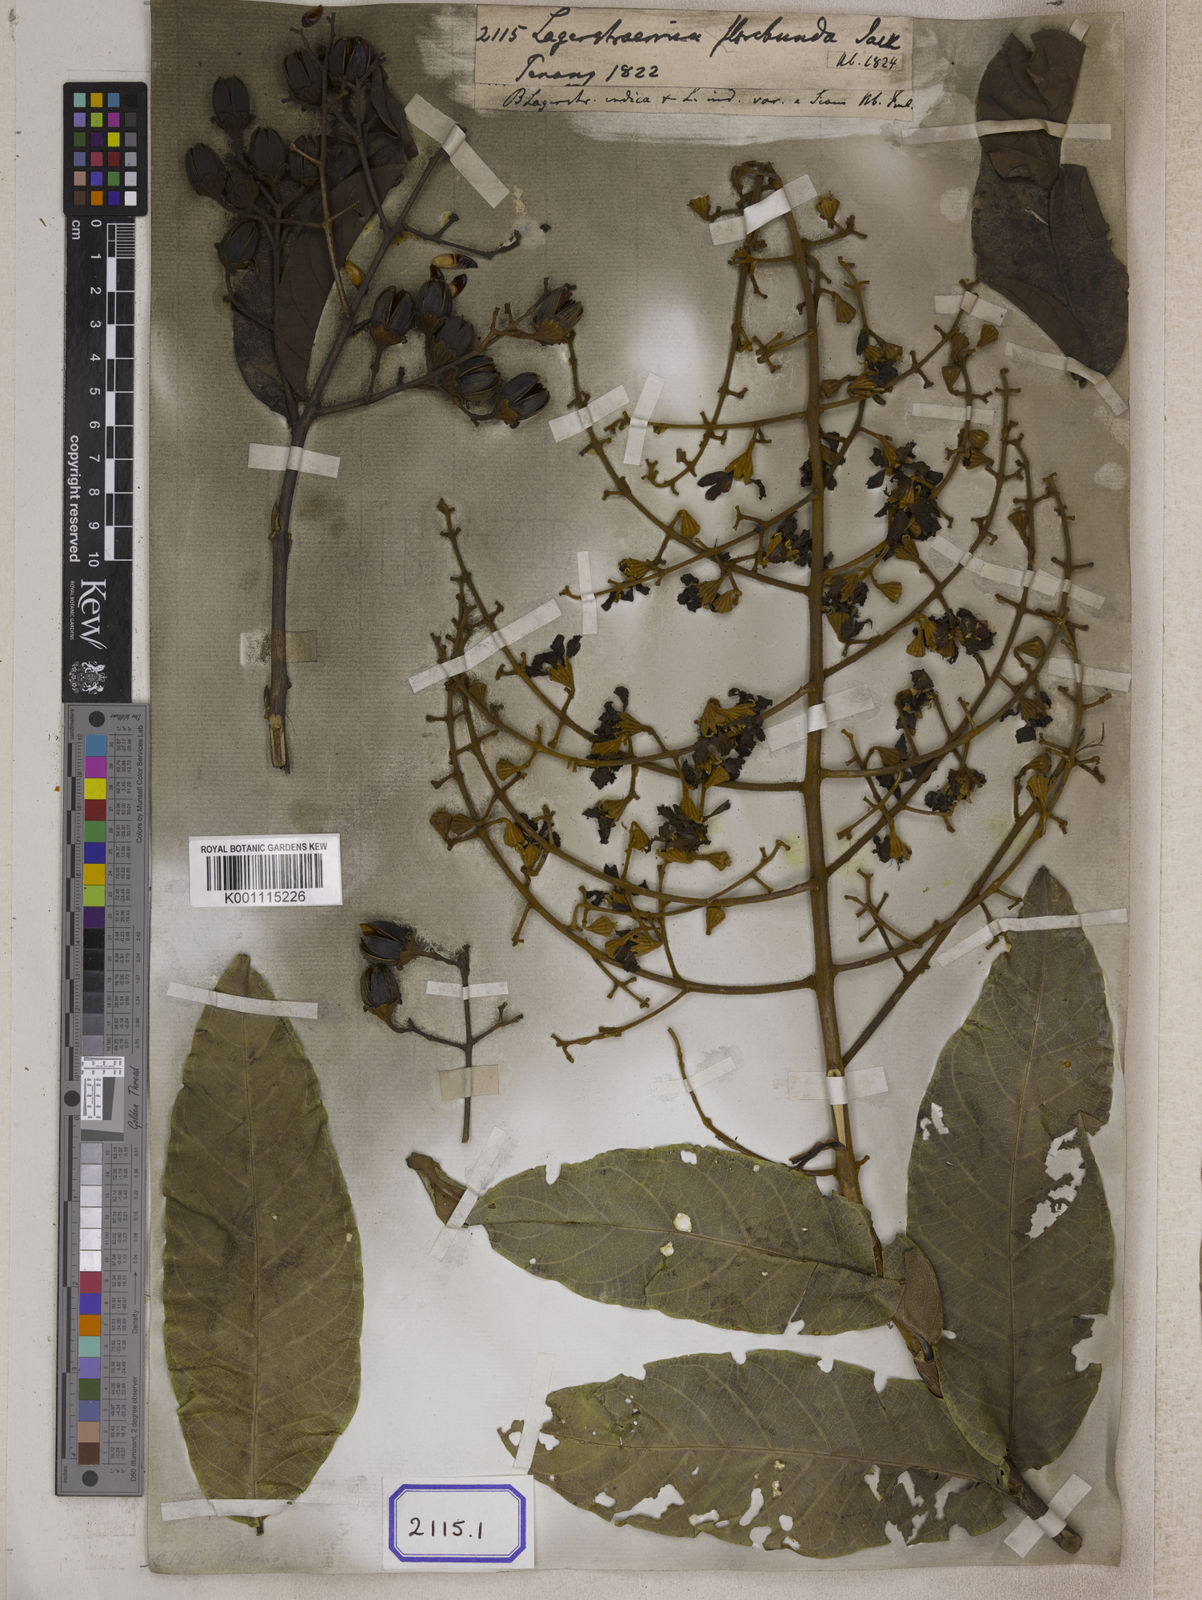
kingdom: Plantae
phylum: Tracheophyta
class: Magnoliopsida
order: Myrtales
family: Lythraceae
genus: Lagerstroemia
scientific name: Lagerstroemia floribunda
